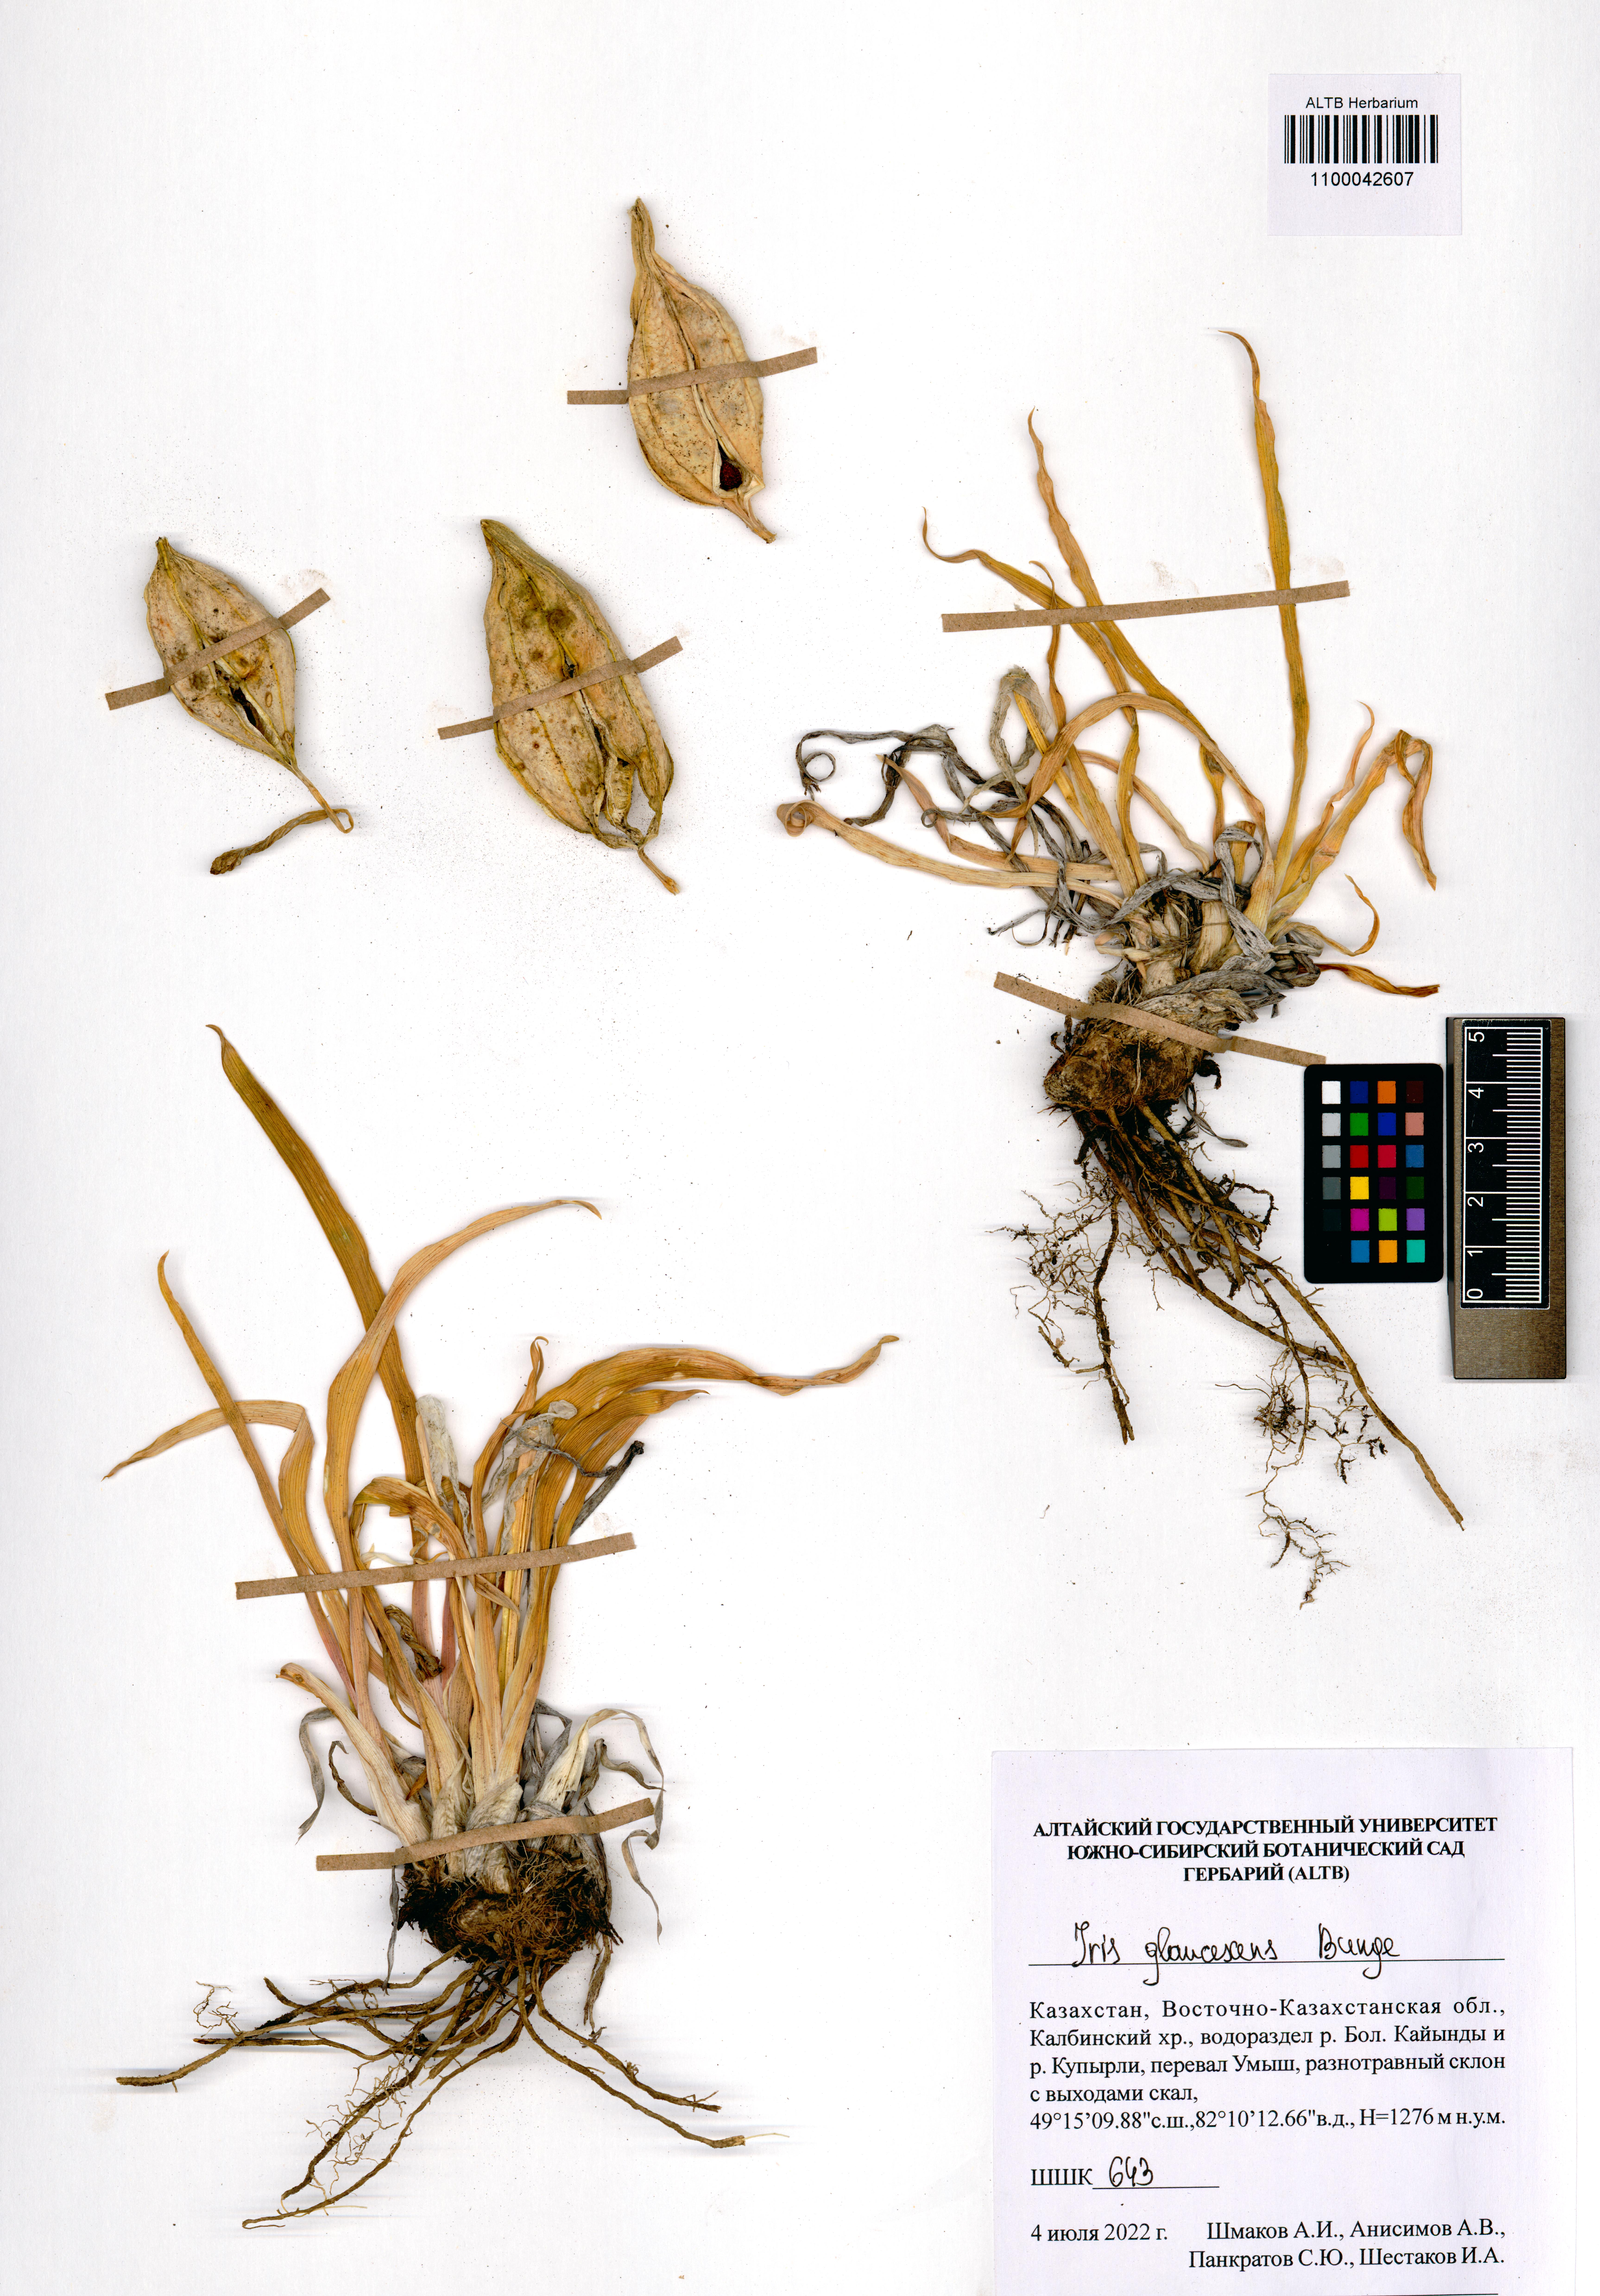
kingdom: Plantae
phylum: Tracheophyta
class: Liliopsida
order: Asparagales
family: Iridaceae
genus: Iris
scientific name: Iris glaucescens
